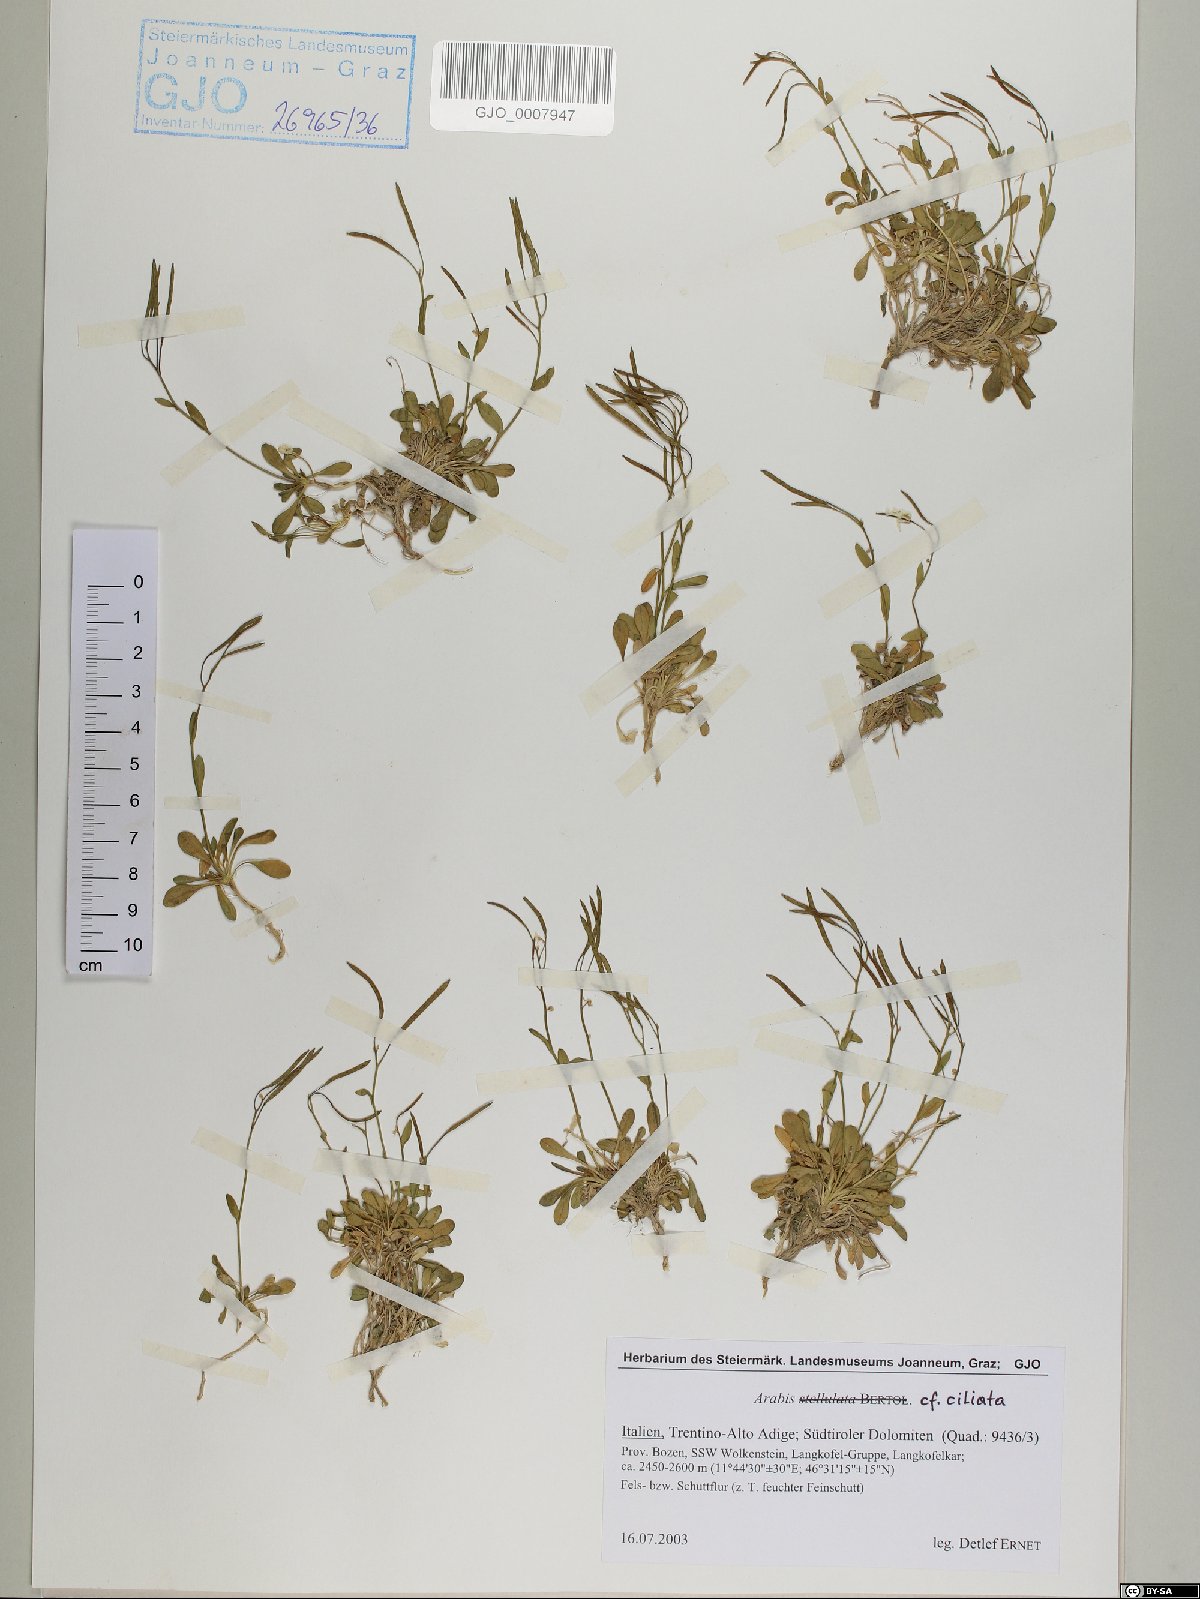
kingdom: Plantae
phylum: Tracheophyta
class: Magnoliopsida
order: Brassicales
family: Brassicaceae
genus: Arabis
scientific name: Arabis ciliata
